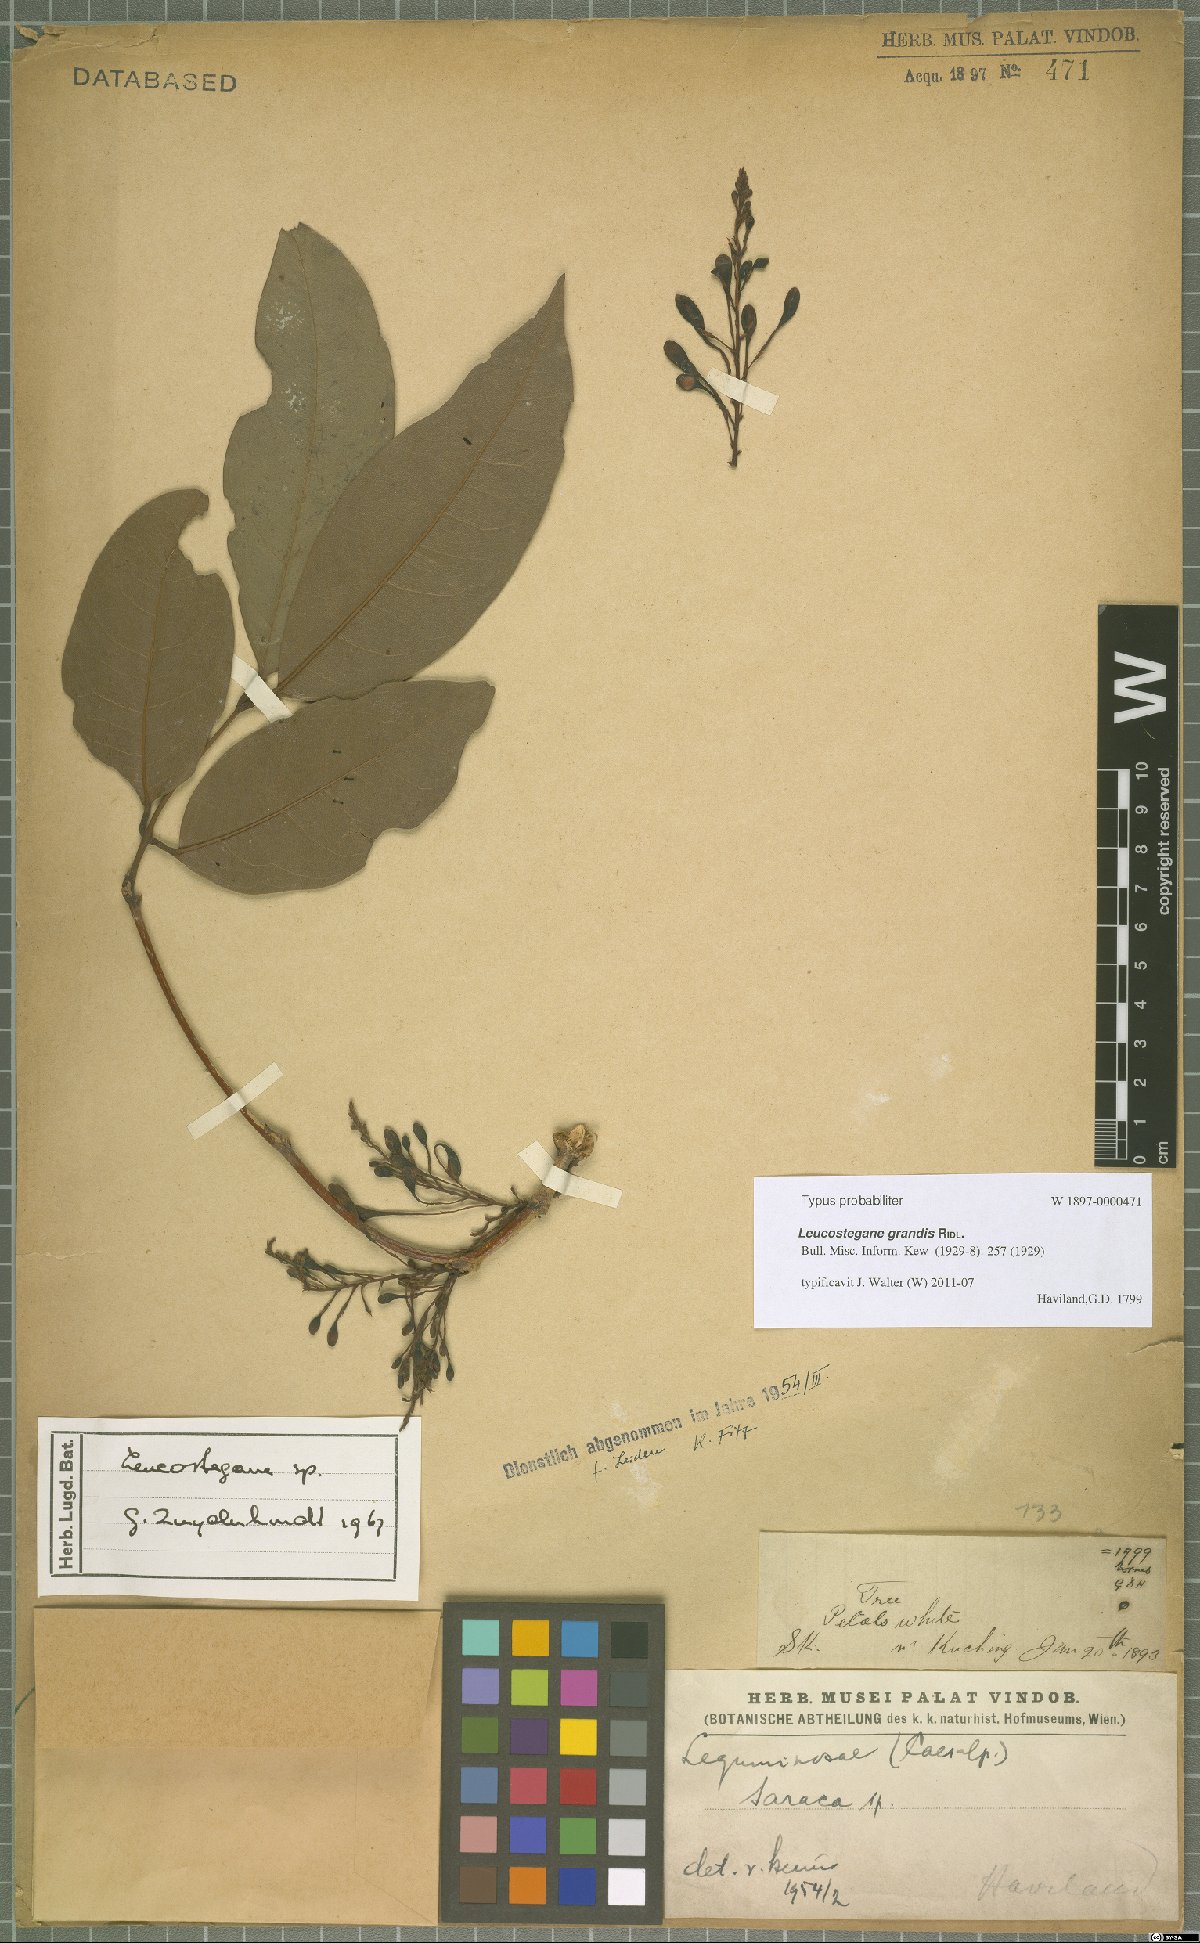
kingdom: Plantae
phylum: Tracheophyta
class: Magnoliopsida
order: Fabales
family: Fabaceae
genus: Leucostegane
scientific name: Leucostegane grandis
